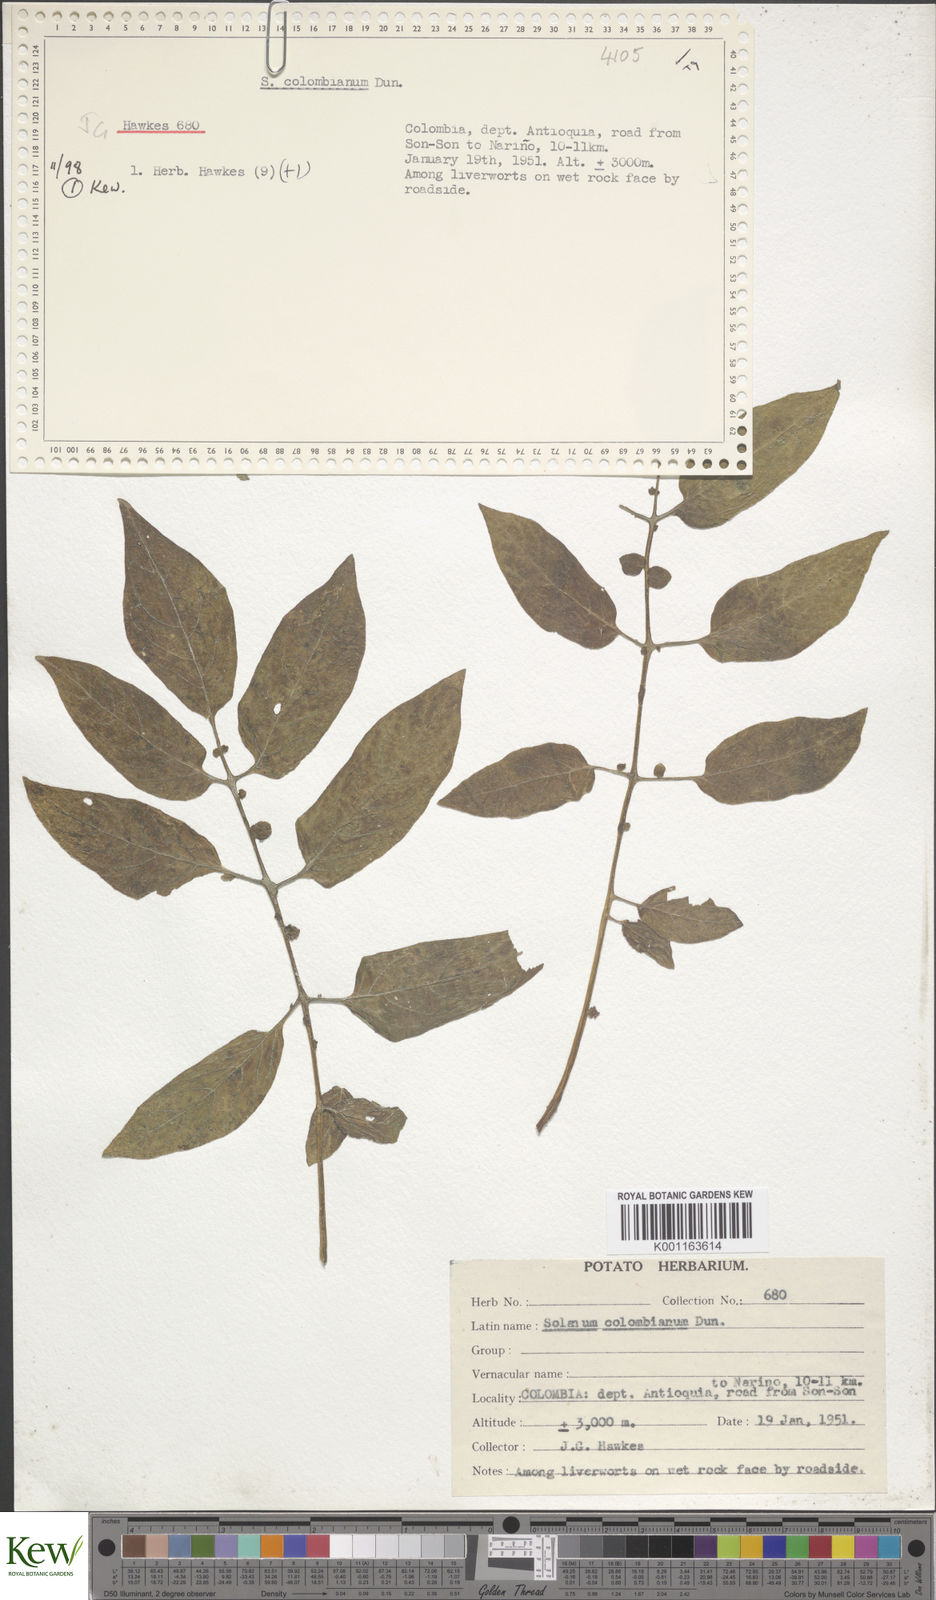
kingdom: Plantae
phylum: Tracheophyta
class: Magnoliopsida
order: Solanales
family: Solanaceae
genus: Solanum
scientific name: Solanum colombianum
